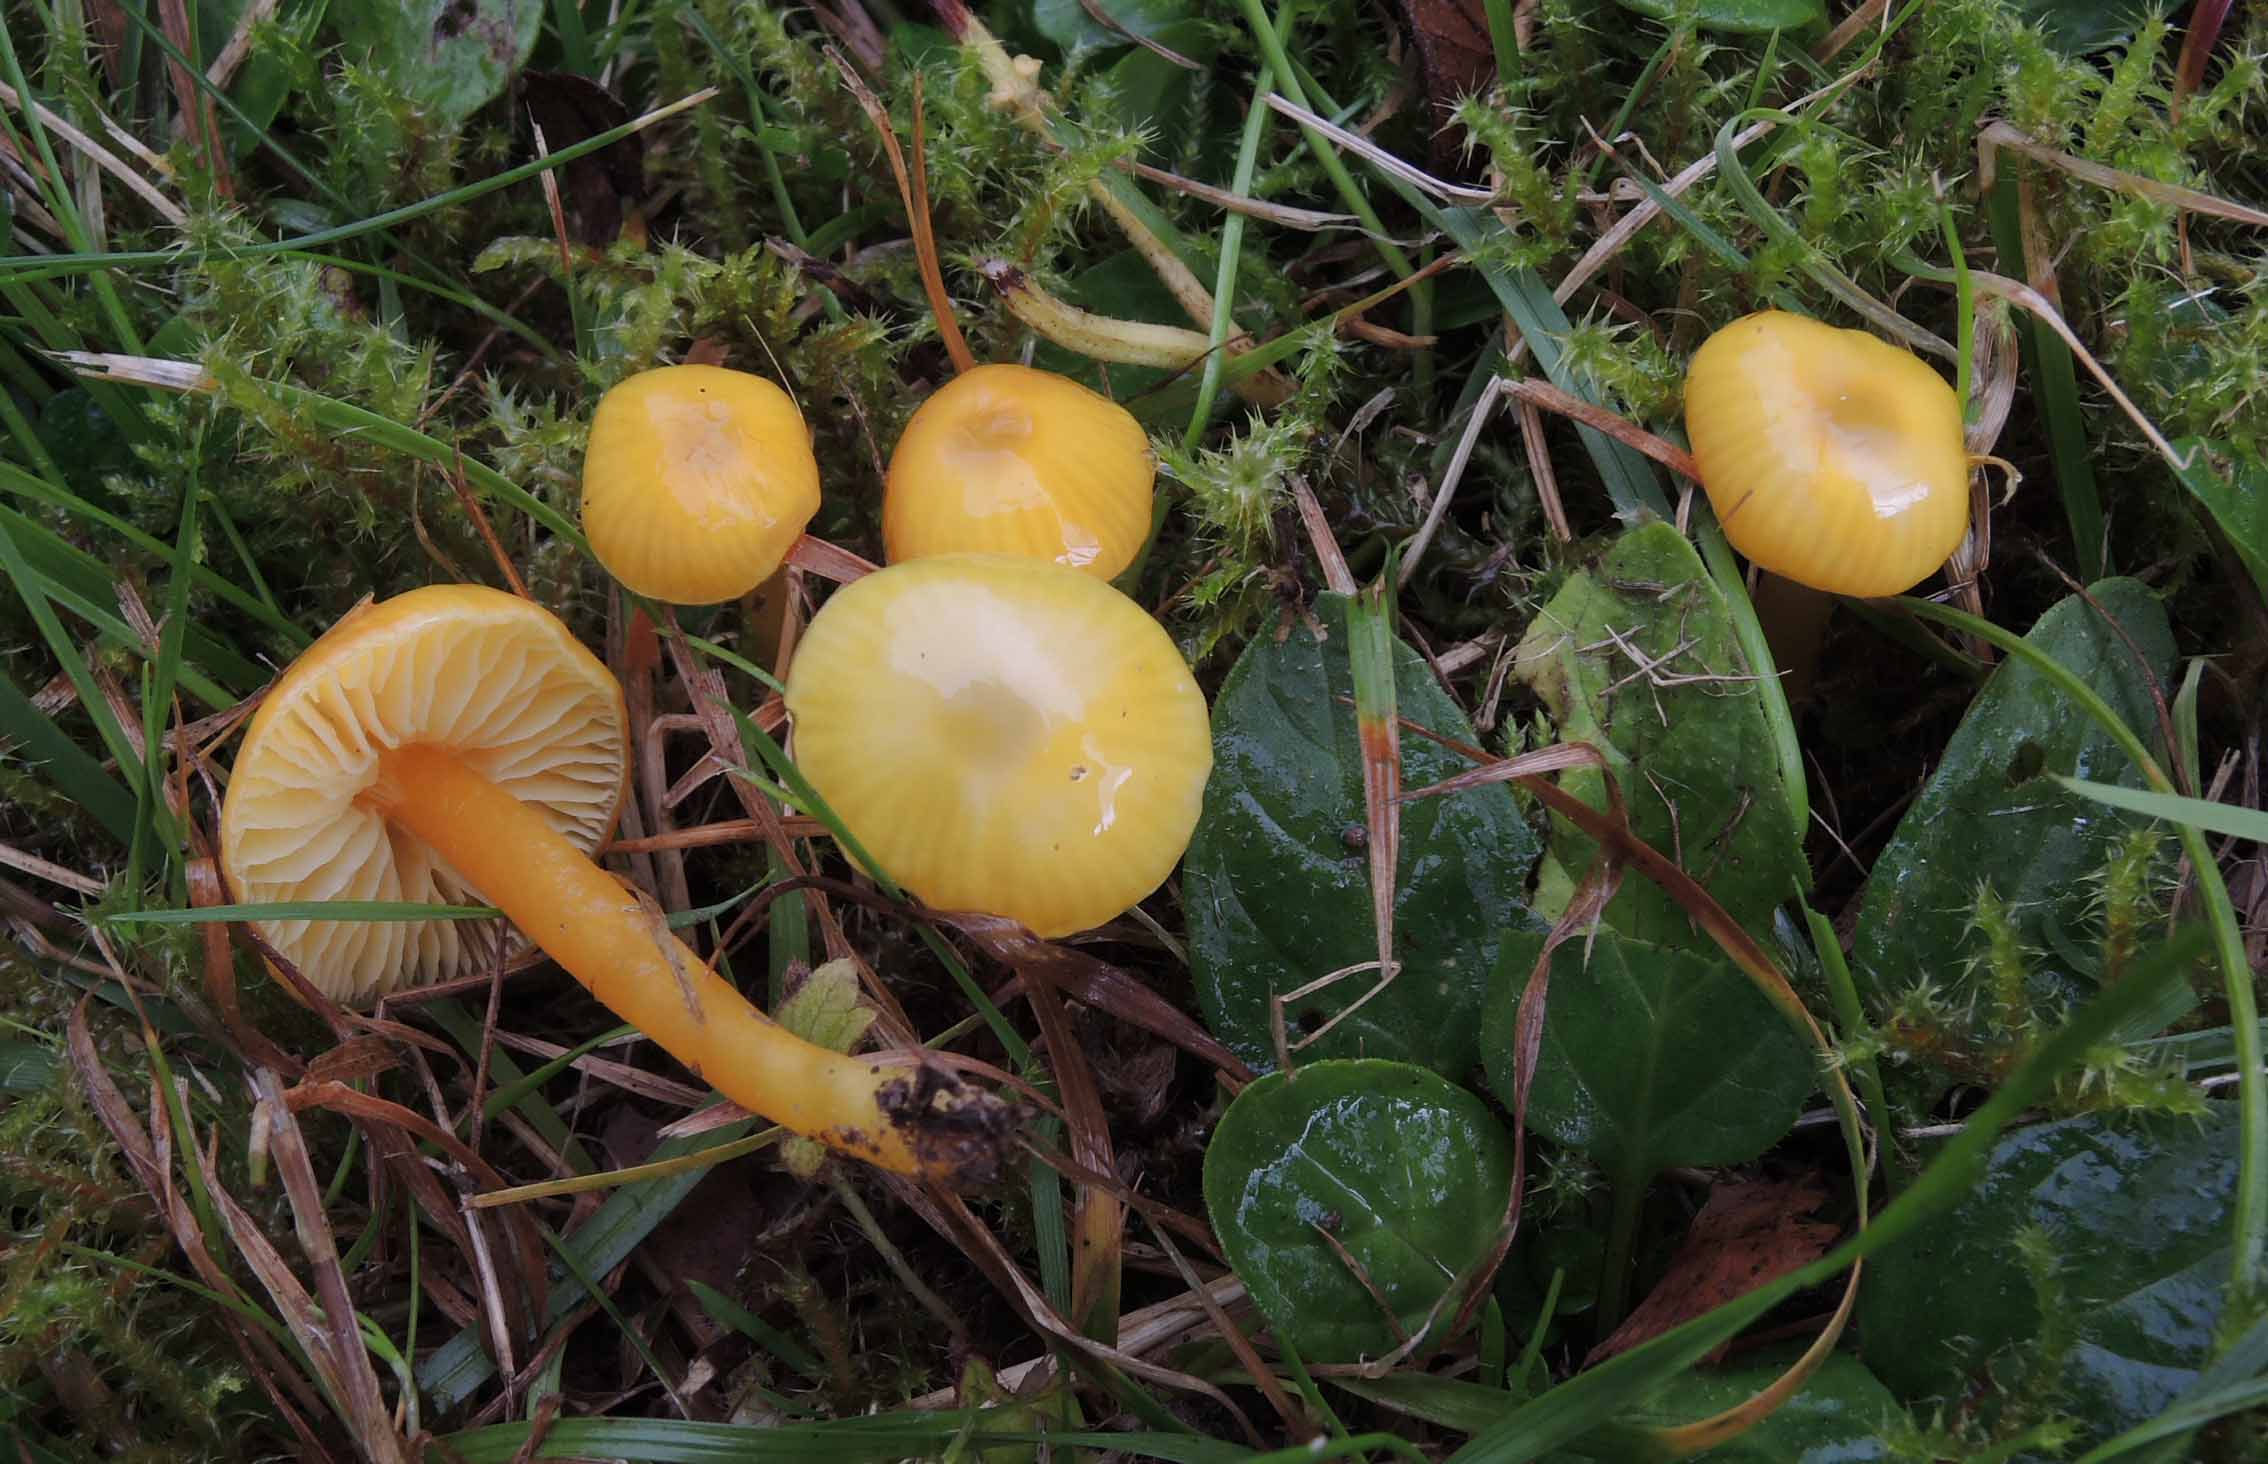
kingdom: Fungi
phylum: Basidiomycota
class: Agaricomycetes
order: Agaricales
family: Hygrophoraceae
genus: Hygrocybe
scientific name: Hygrocybe glutinipes
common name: slimstokket vokshat
